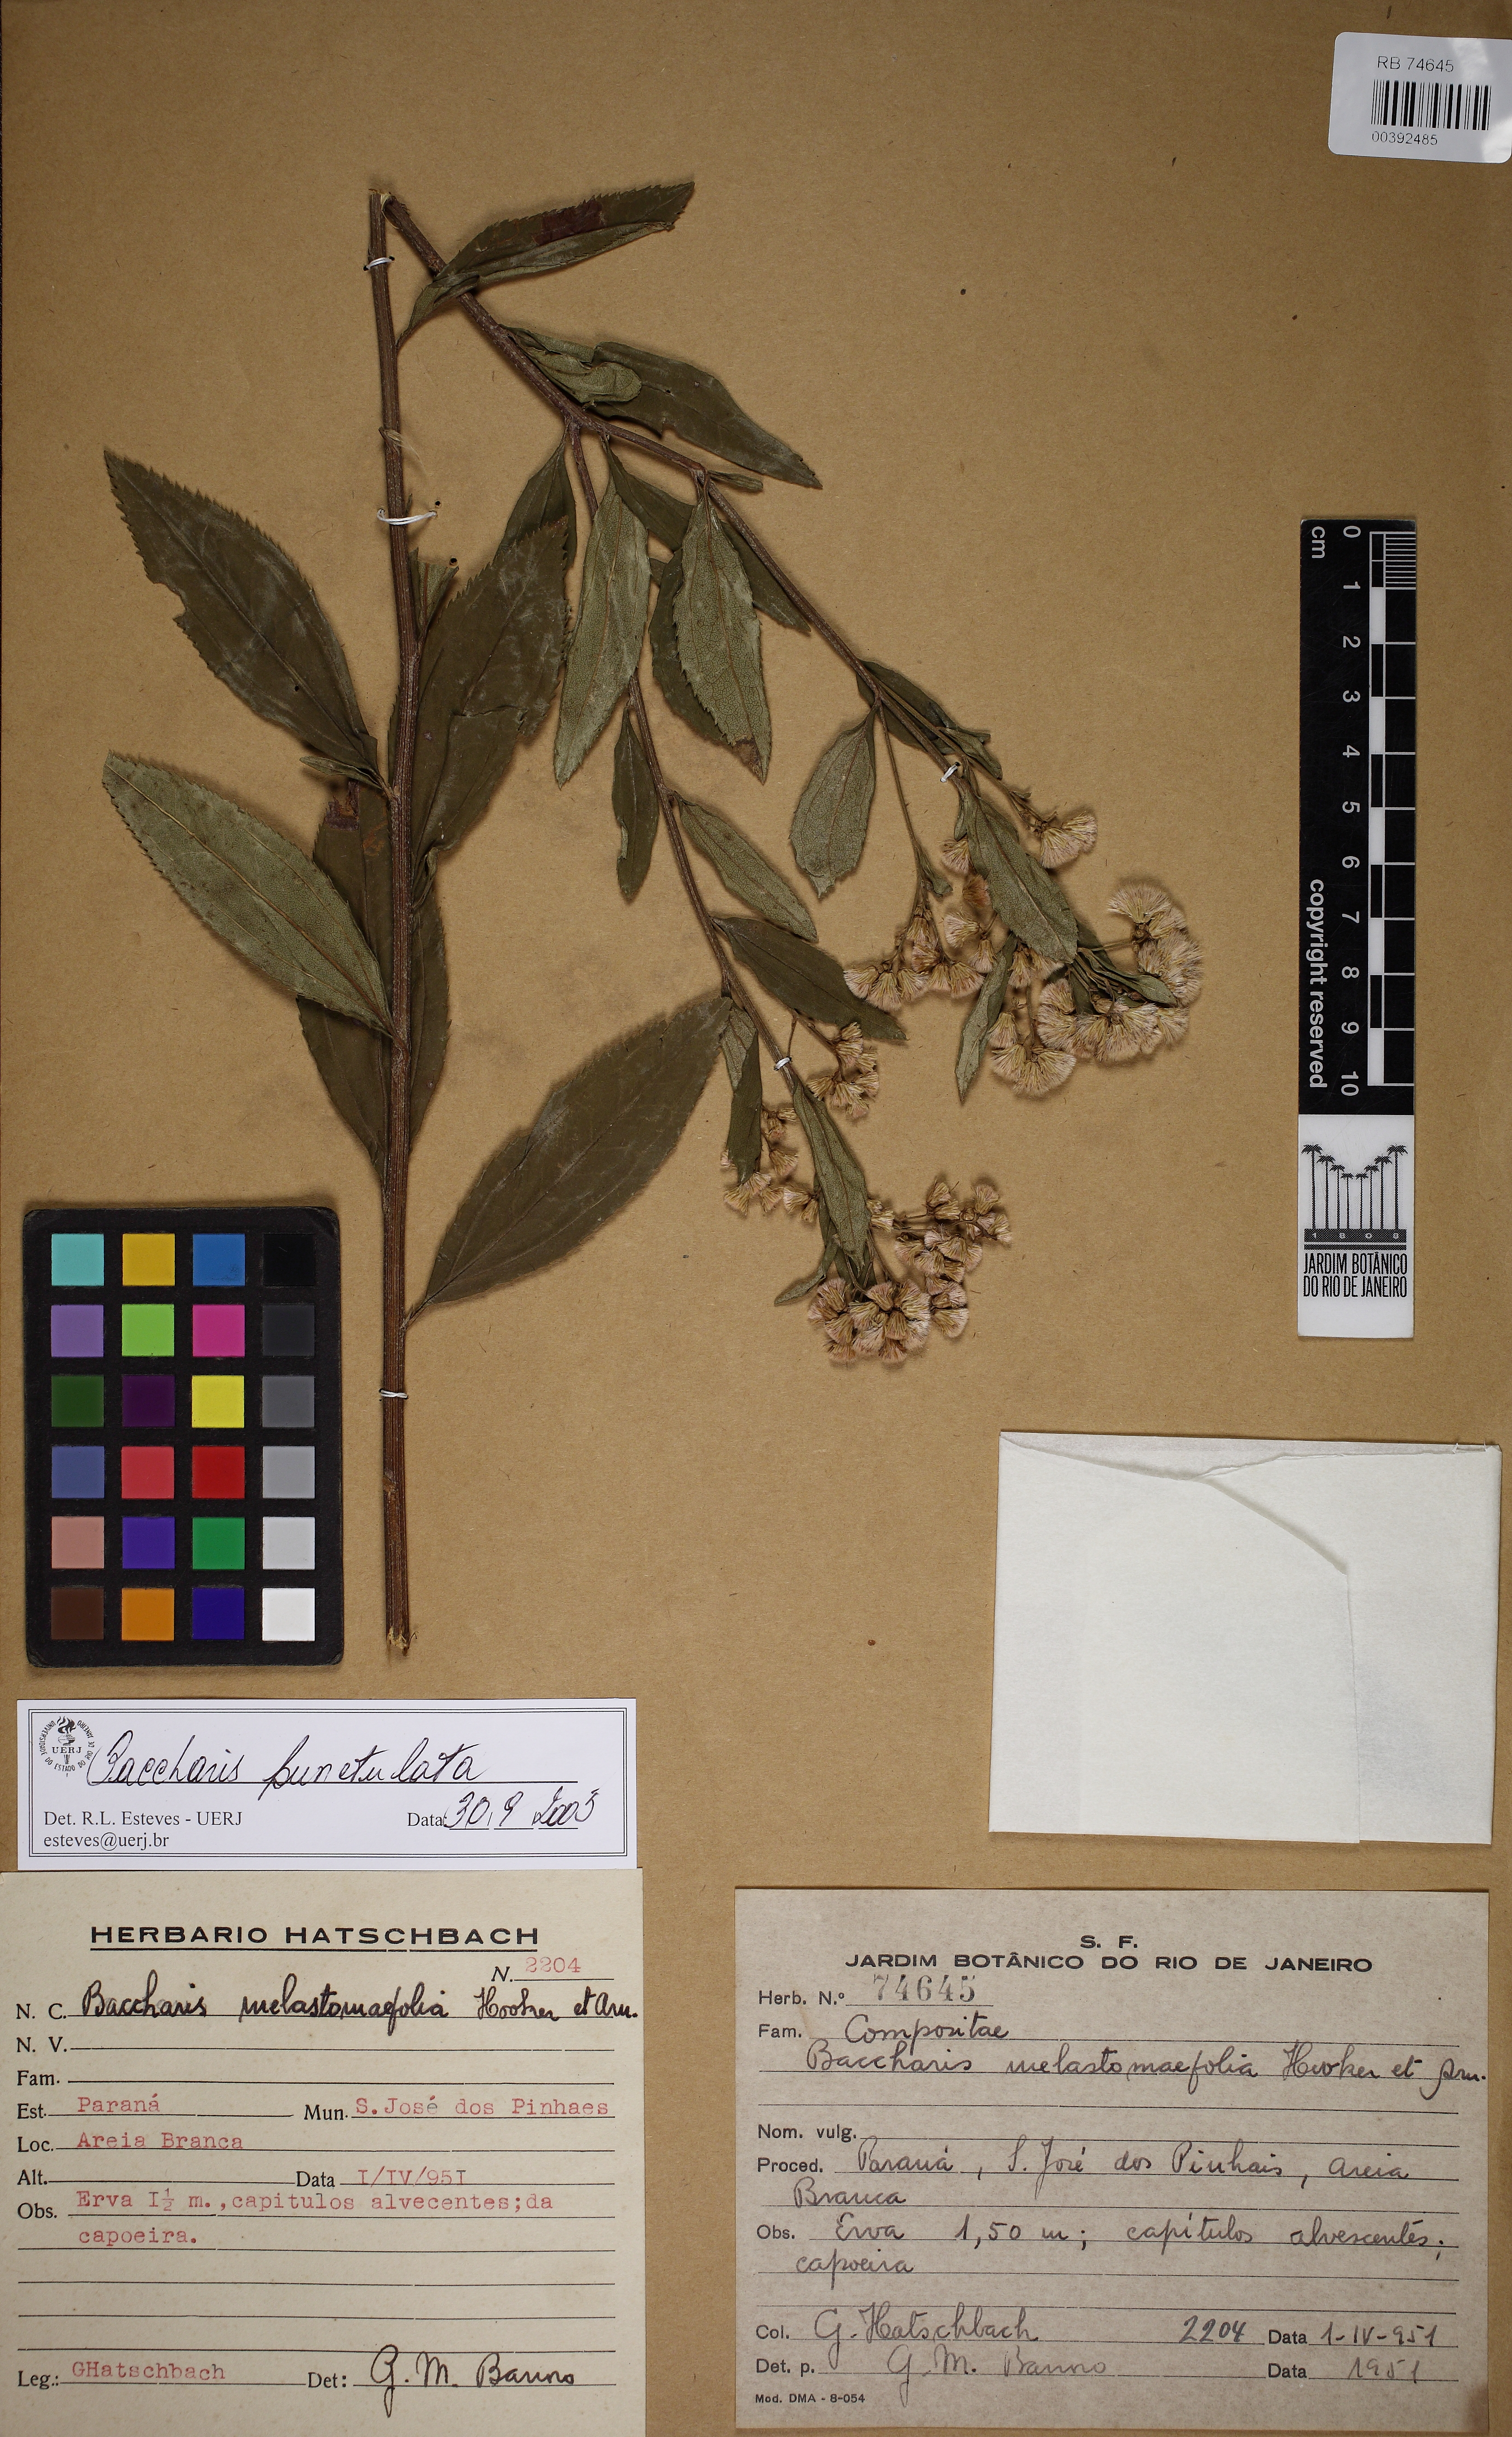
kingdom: Plantae
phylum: Tracheophyta
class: Magnoliopsida
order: Asterales
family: Asteraceae
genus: Baccharis
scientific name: Baccharis punctulata
